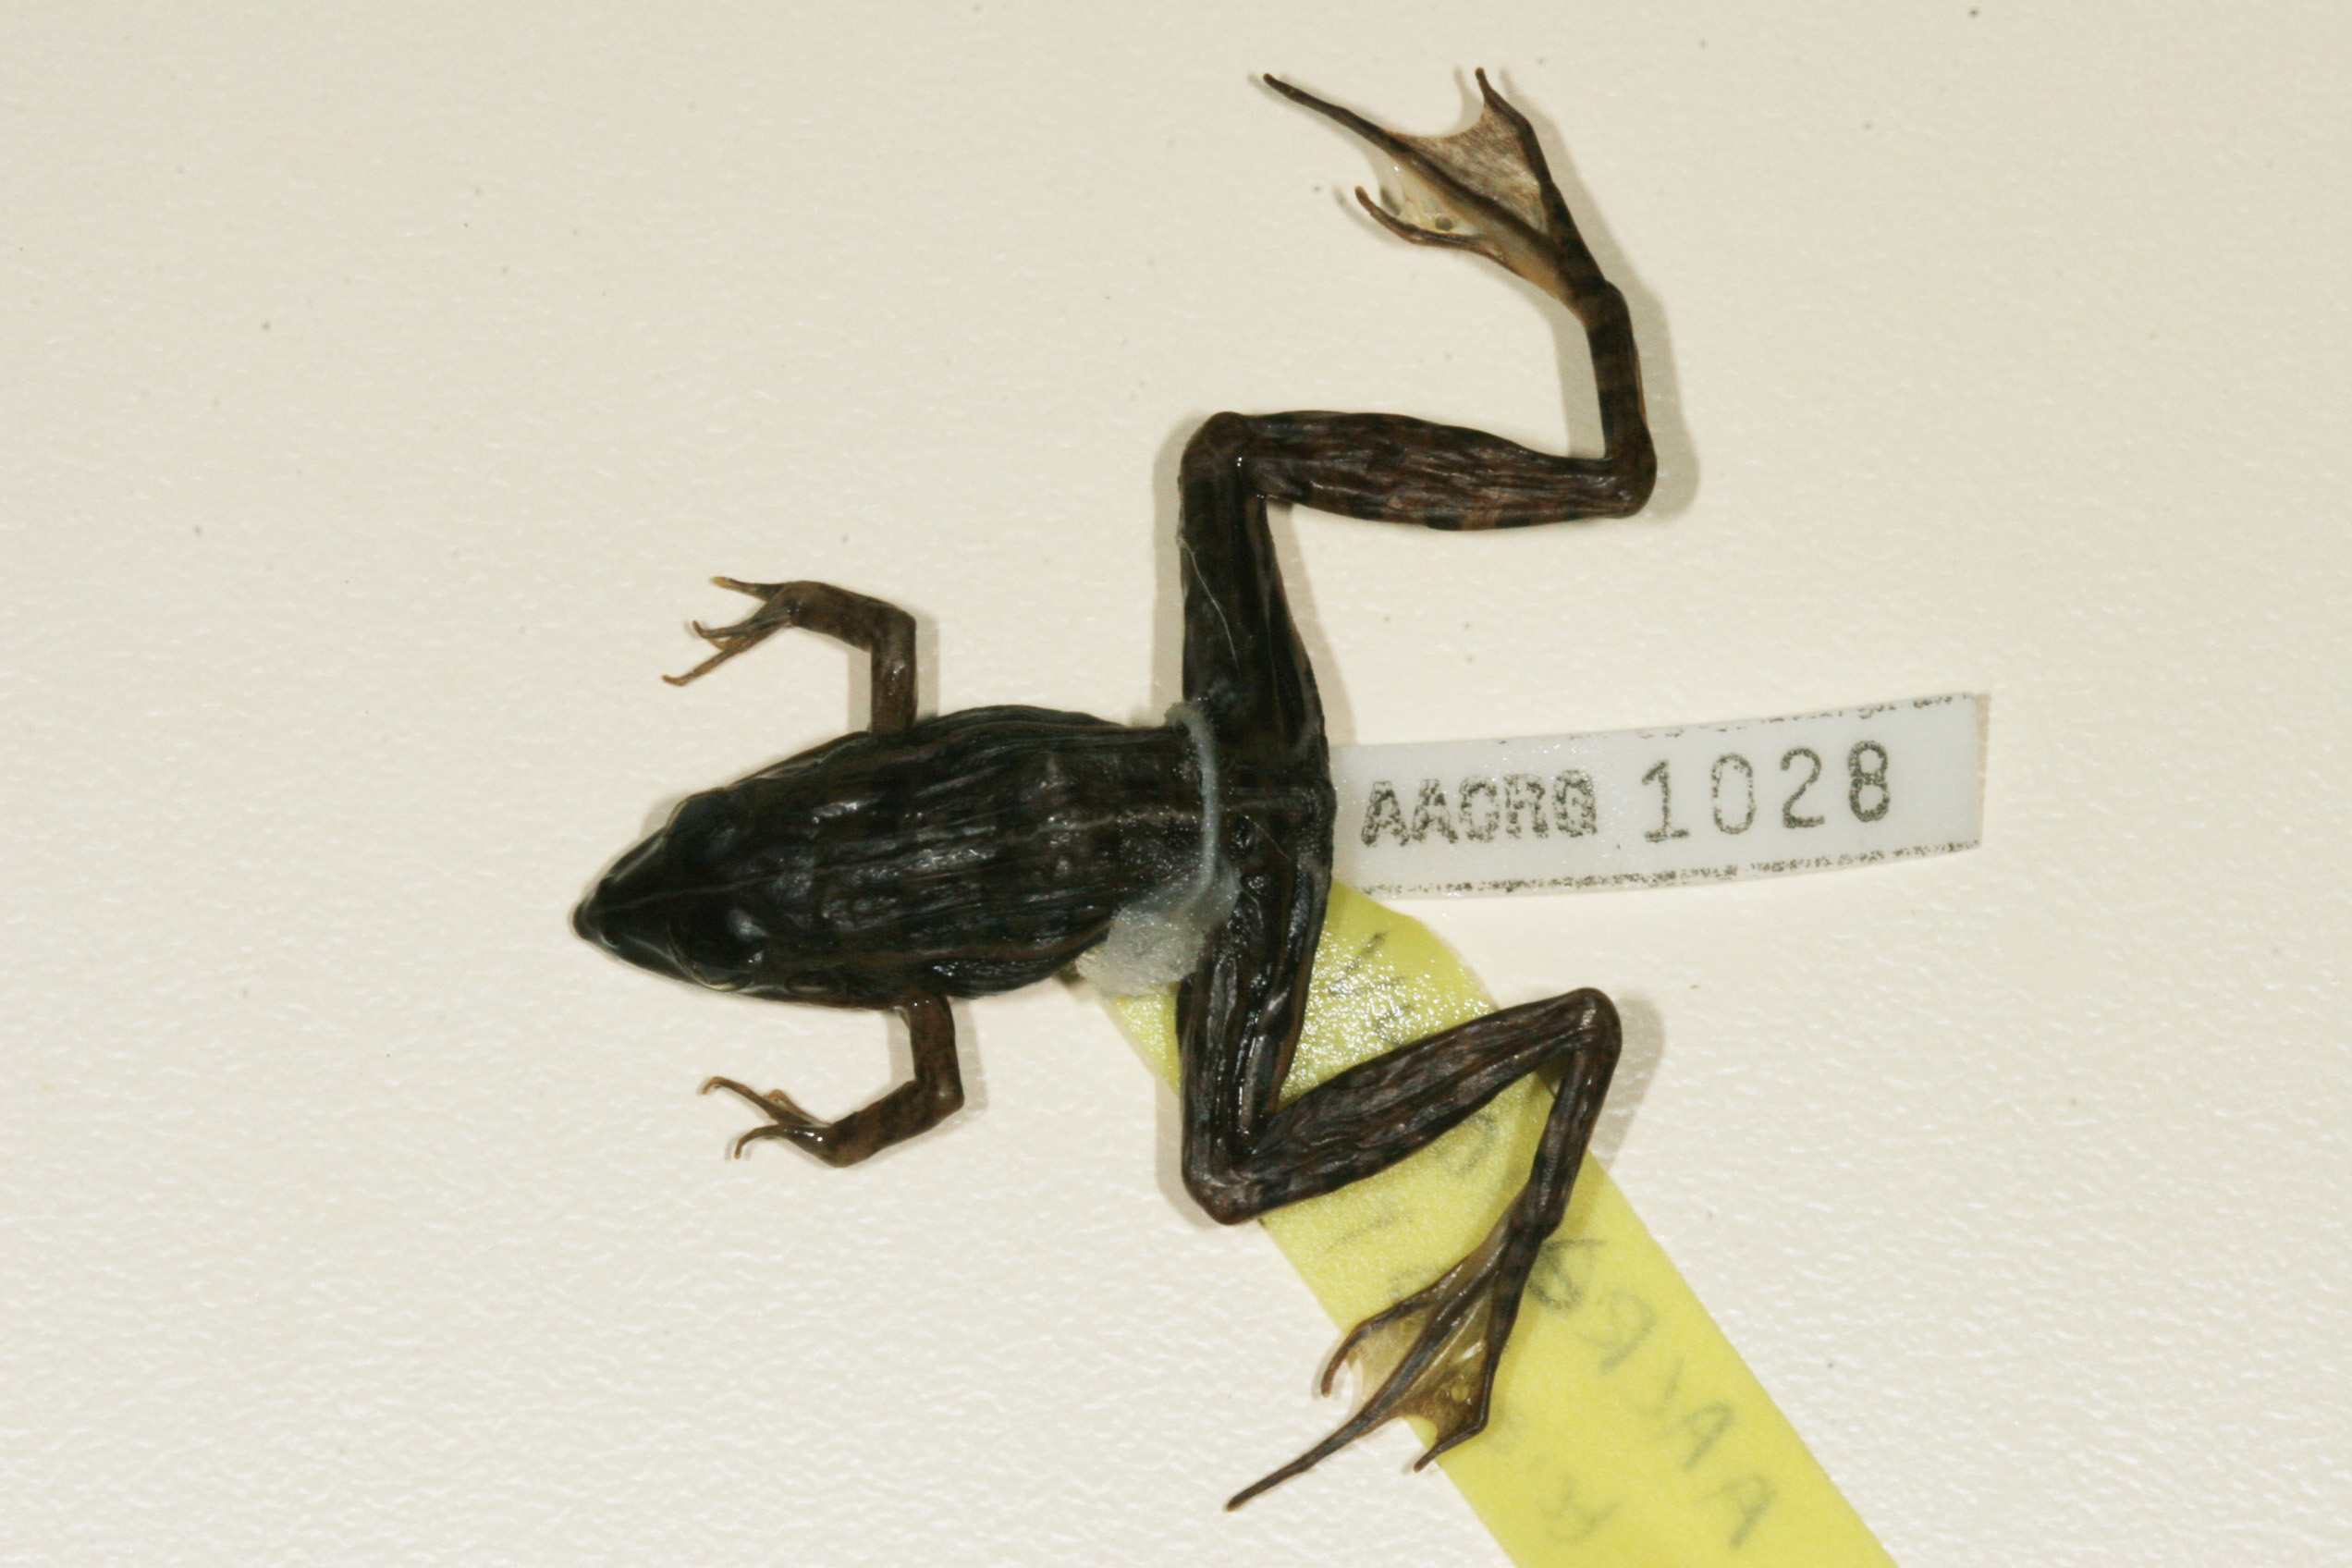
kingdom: Animalia
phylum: Chordata
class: Amphibia
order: Anura
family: Ptychadenidae
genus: Ptychadena
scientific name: Ptychadena taenioscelis
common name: Lukula grassland frog
